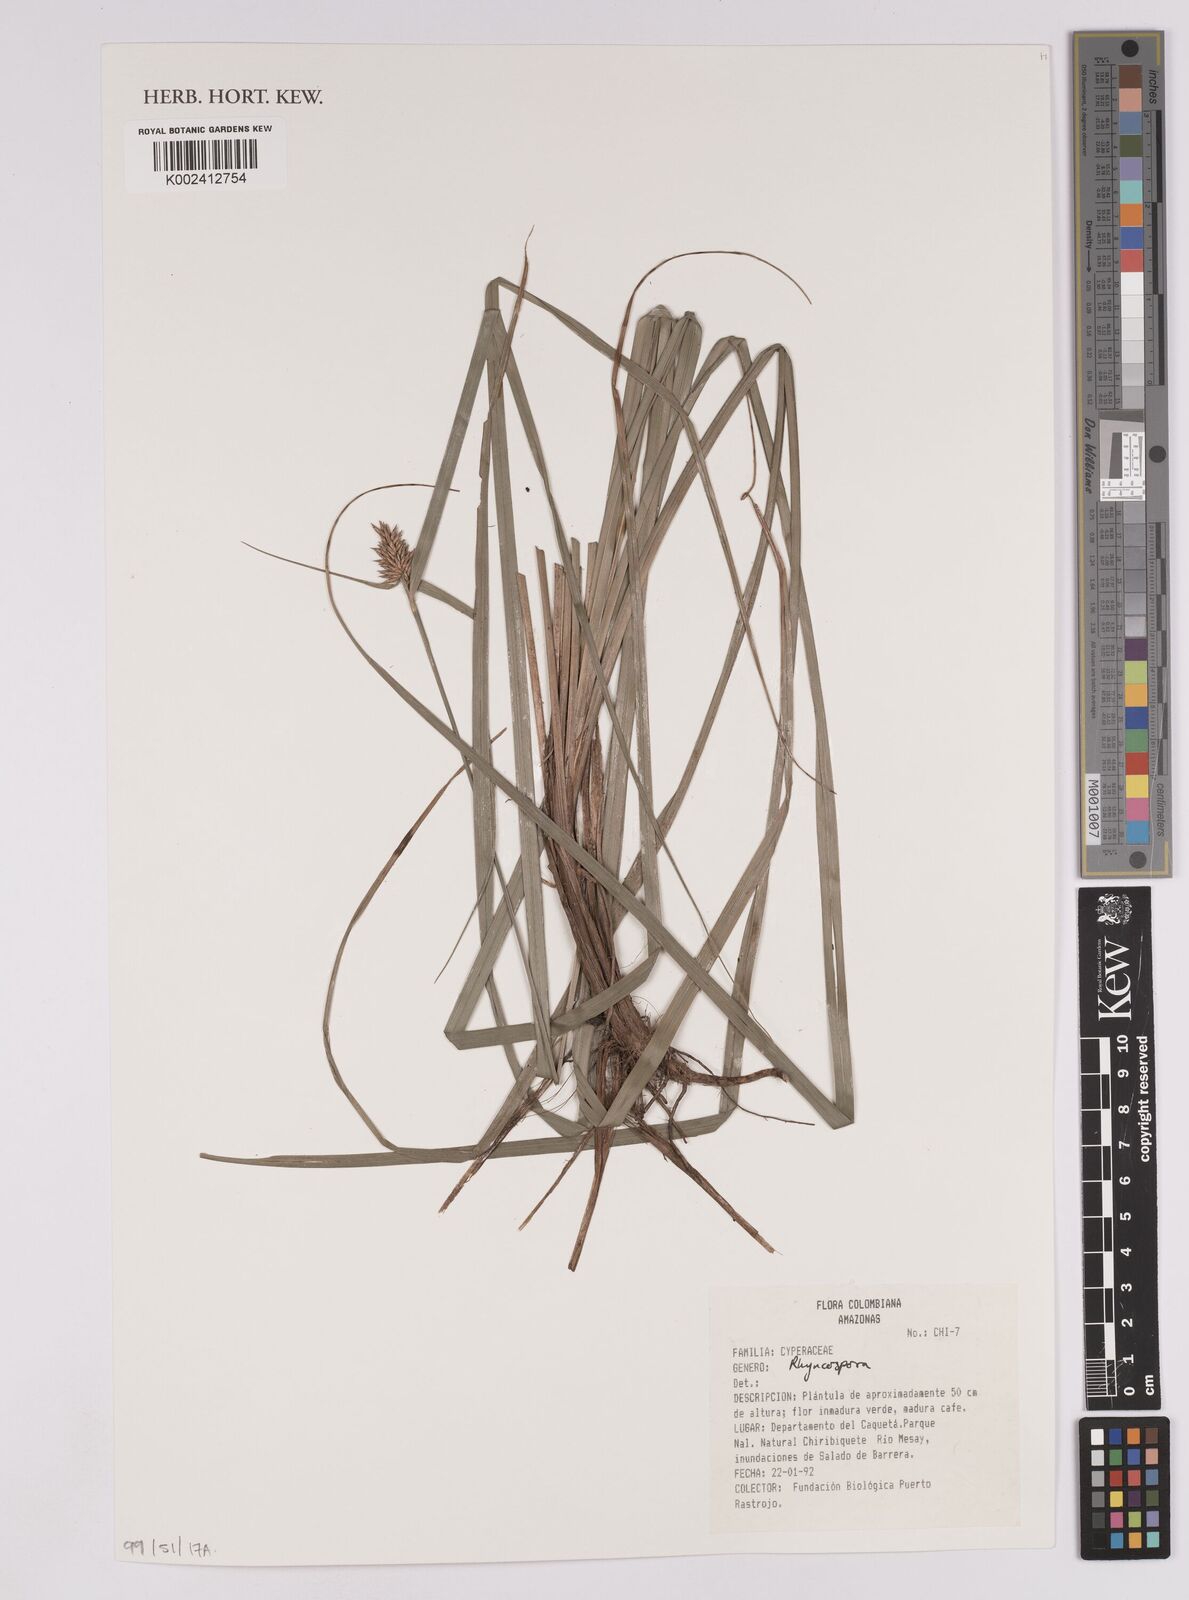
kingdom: Plantae
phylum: Tracheophyta
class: Liliopsida
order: Poales
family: Cyperaceae
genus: Rhynchospora
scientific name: Rhynchospora
